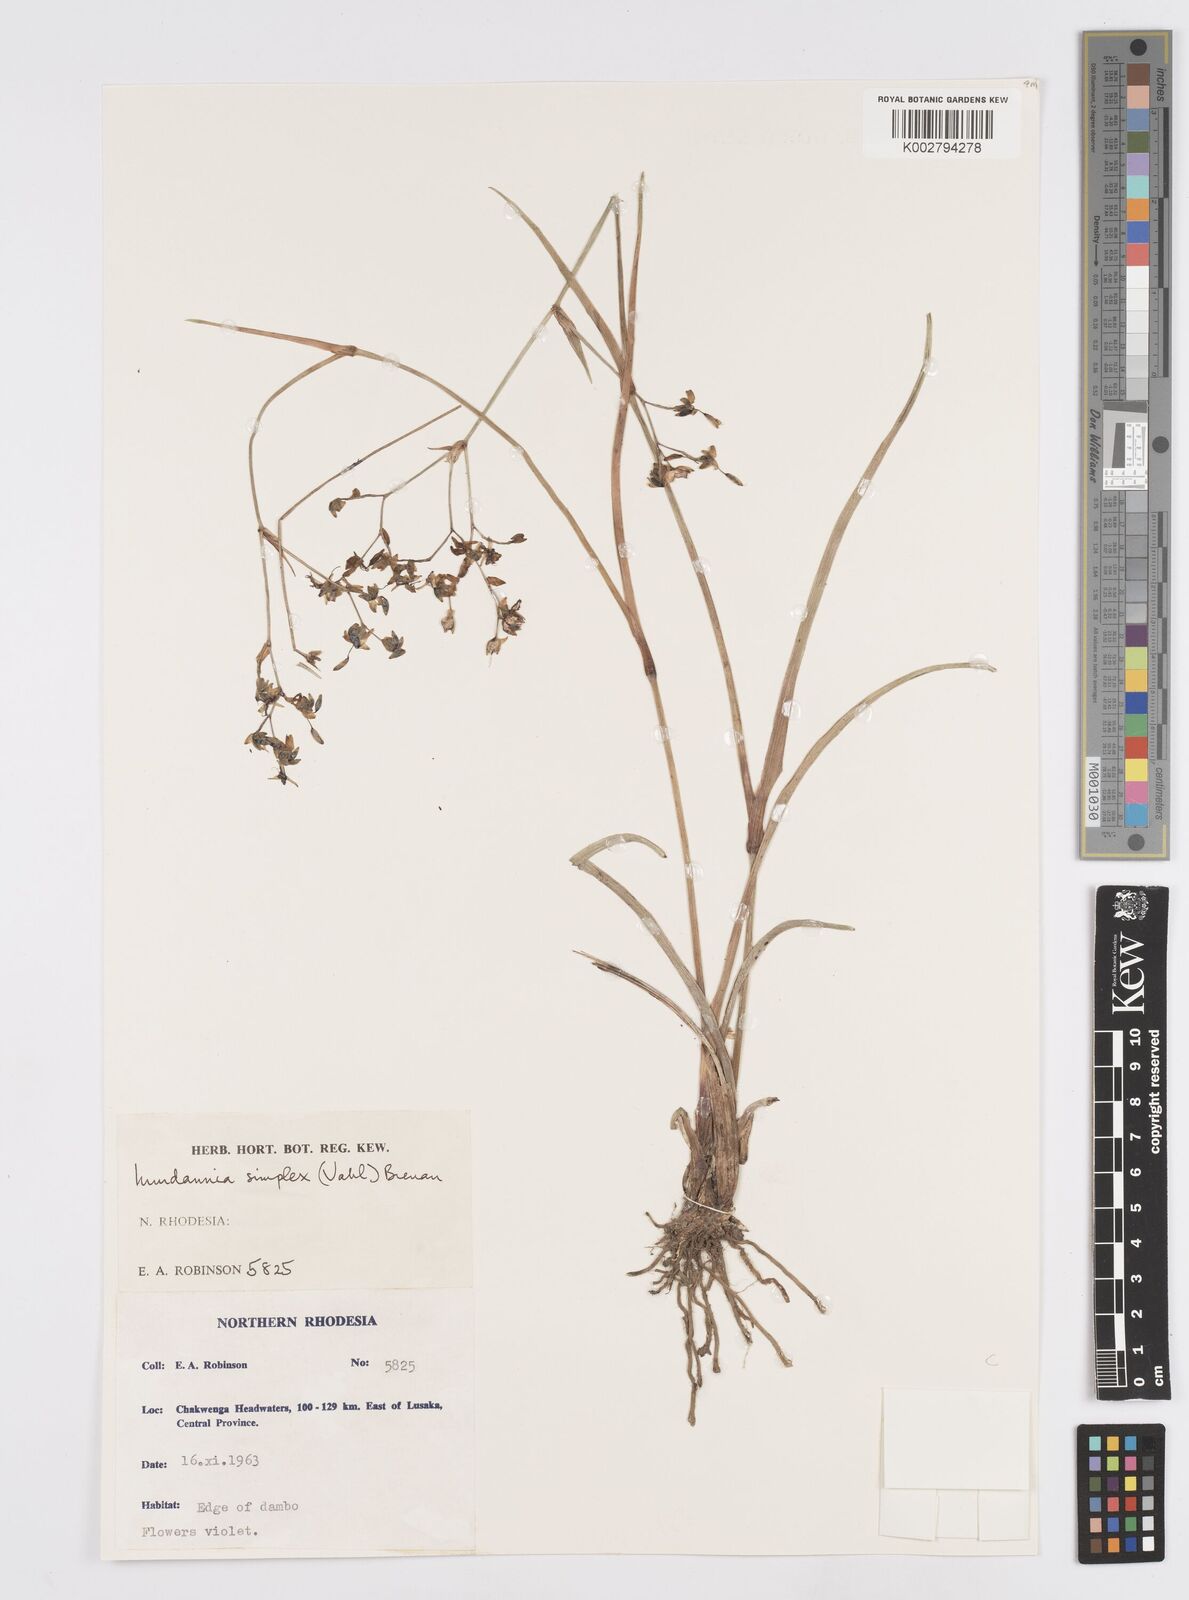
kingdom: Plantae
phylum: Tracheophyta
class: Liliopsida
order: Commelinales
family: Commelinaceae
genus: Murdannia
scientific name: Murdannia simplex
